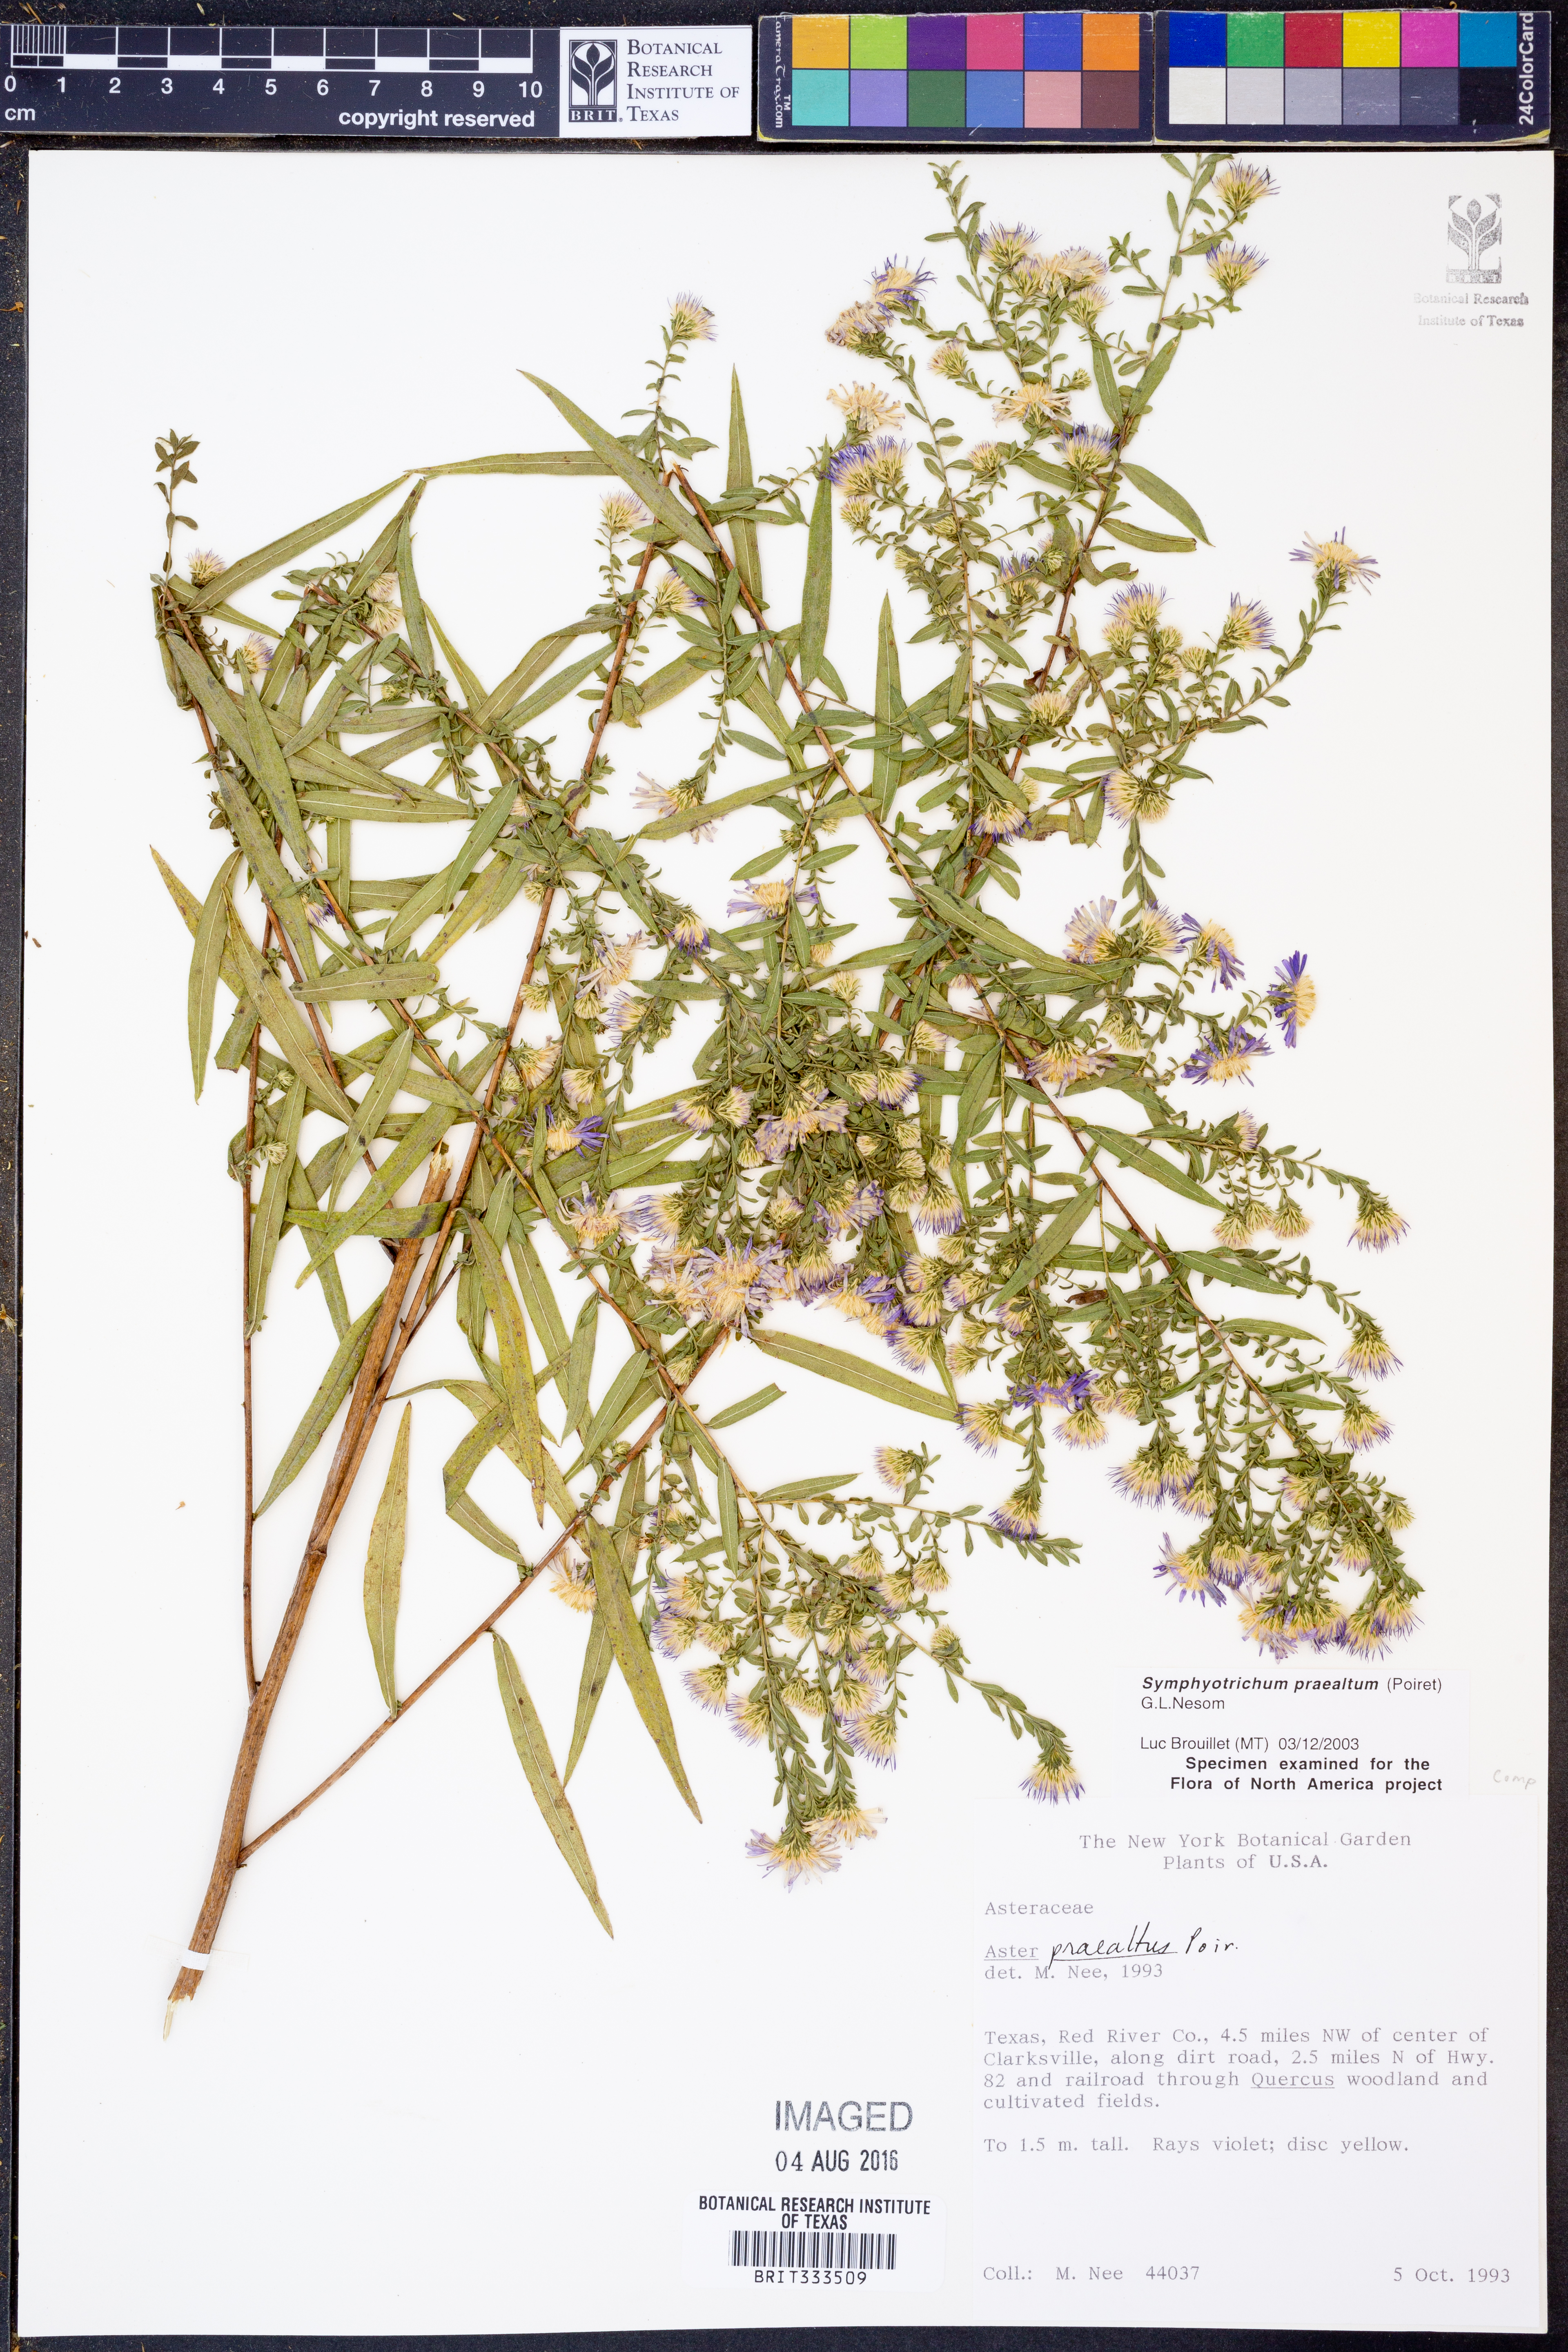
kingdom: Plantae
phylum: Tracheophyta
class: Magnoliopsida
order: Asterales
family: Asteraceae
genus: Symphyotrichum
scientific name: Symphyotrichum praealtum
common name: Willow aster
